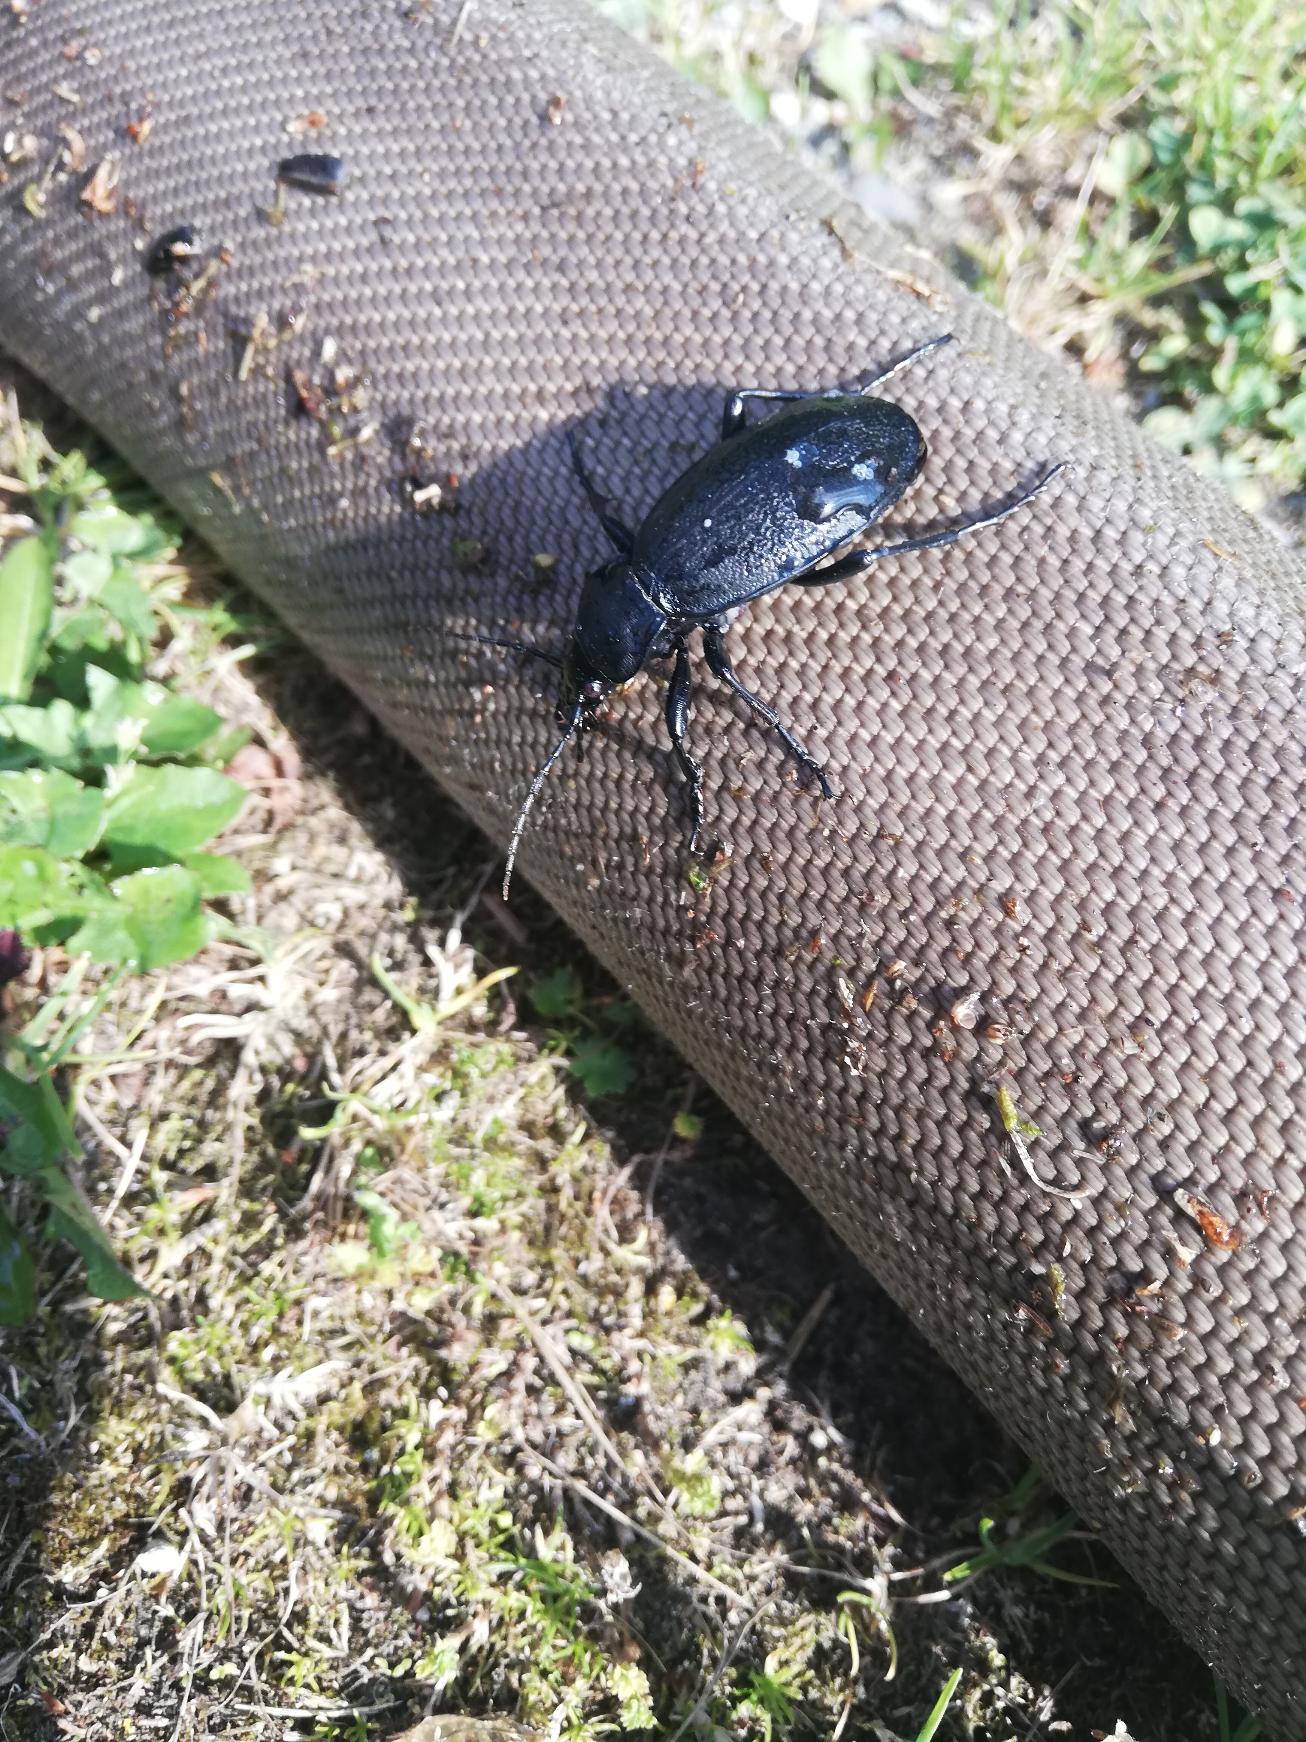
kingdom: Animalia
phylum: Arthropoda
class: Insecta
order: Coleoptera
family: Carabidae
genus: Carabus
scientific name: Carabus coriaceus
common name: Læderløber
